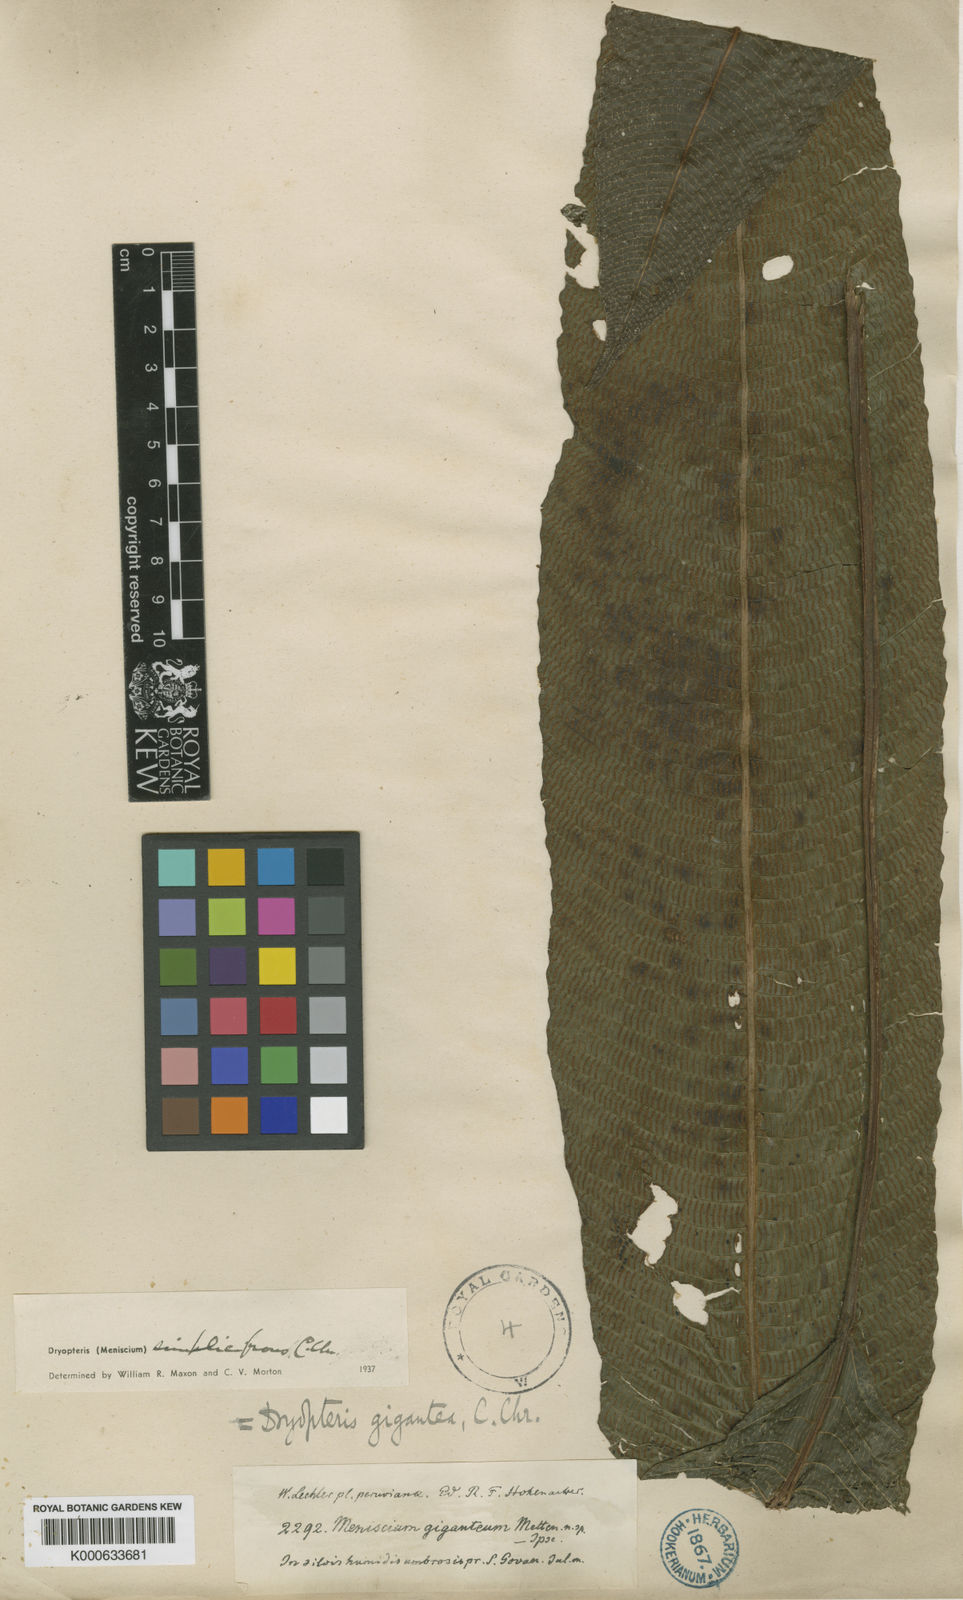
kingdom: Plantae
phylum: Tracheophyta
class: Polypodiopsida
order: Polypodiales
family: Thelypteridaceae
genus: Meniscium
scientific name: Meniscium giganteum
